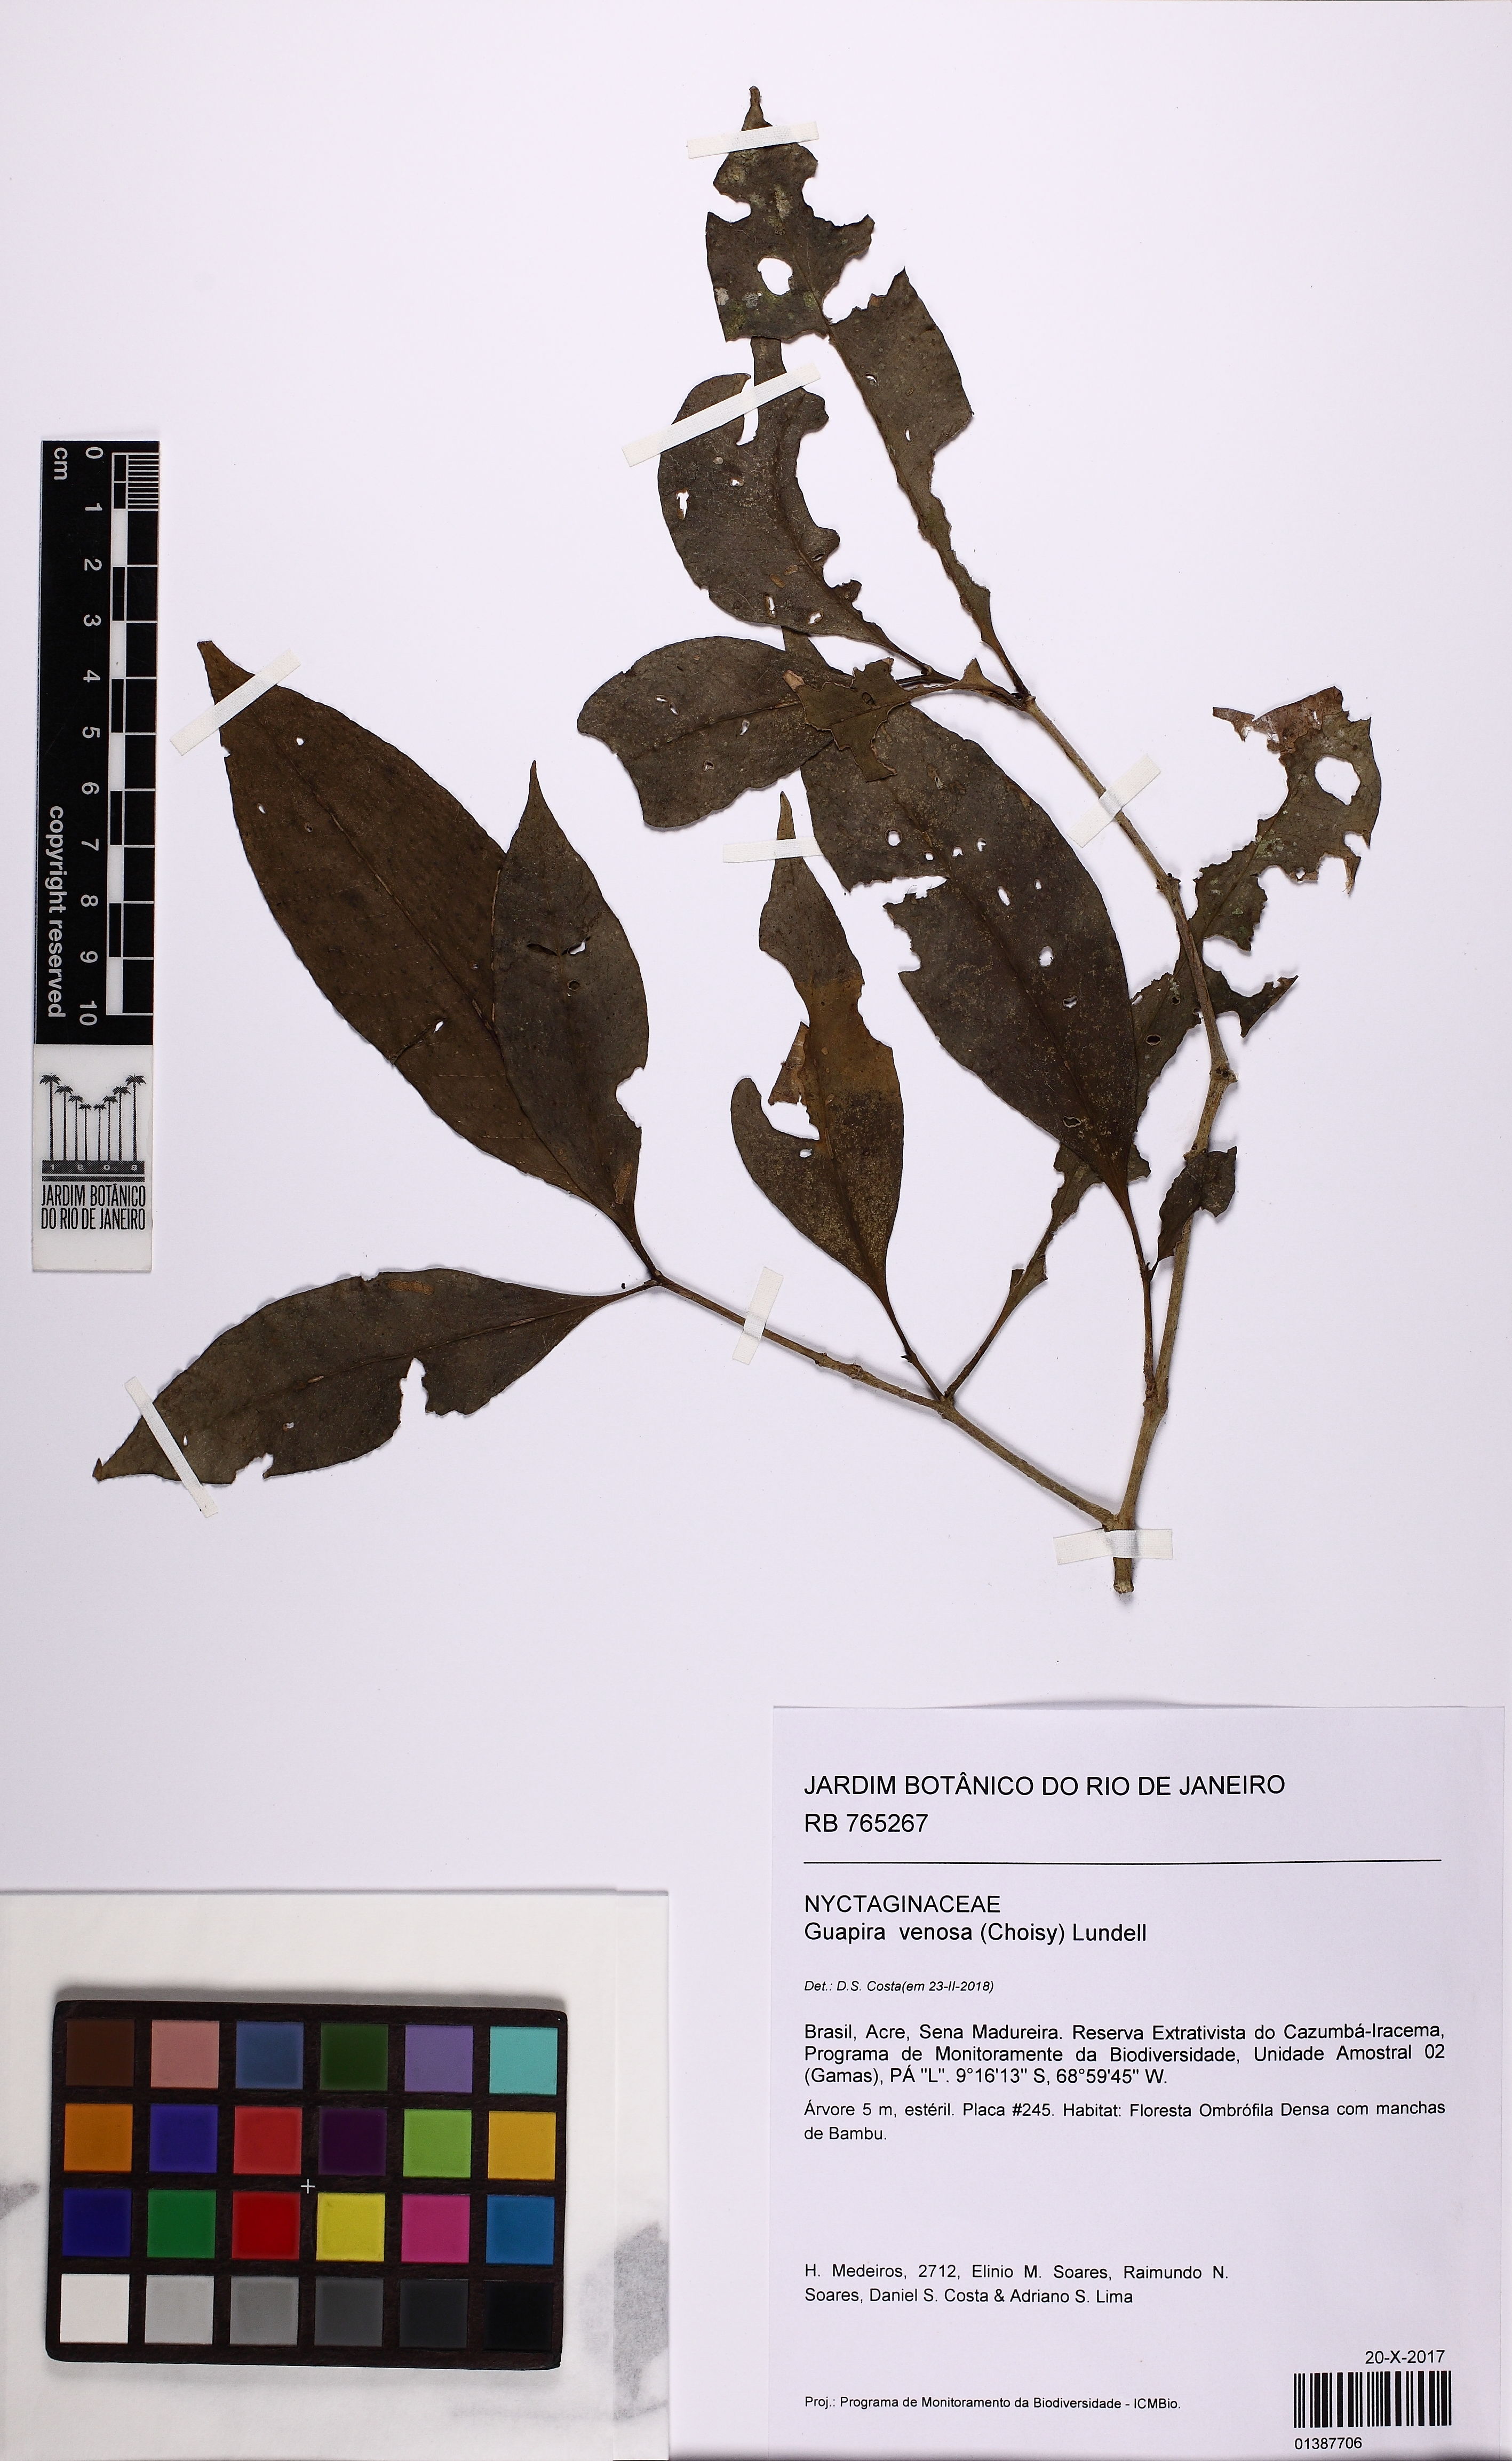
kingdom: Plantae
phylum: Tracheophyta
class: Magnoliopsida
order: Caryophyllales
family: Nyctaginaceae
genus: Guapira
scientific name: Guapira venosa
